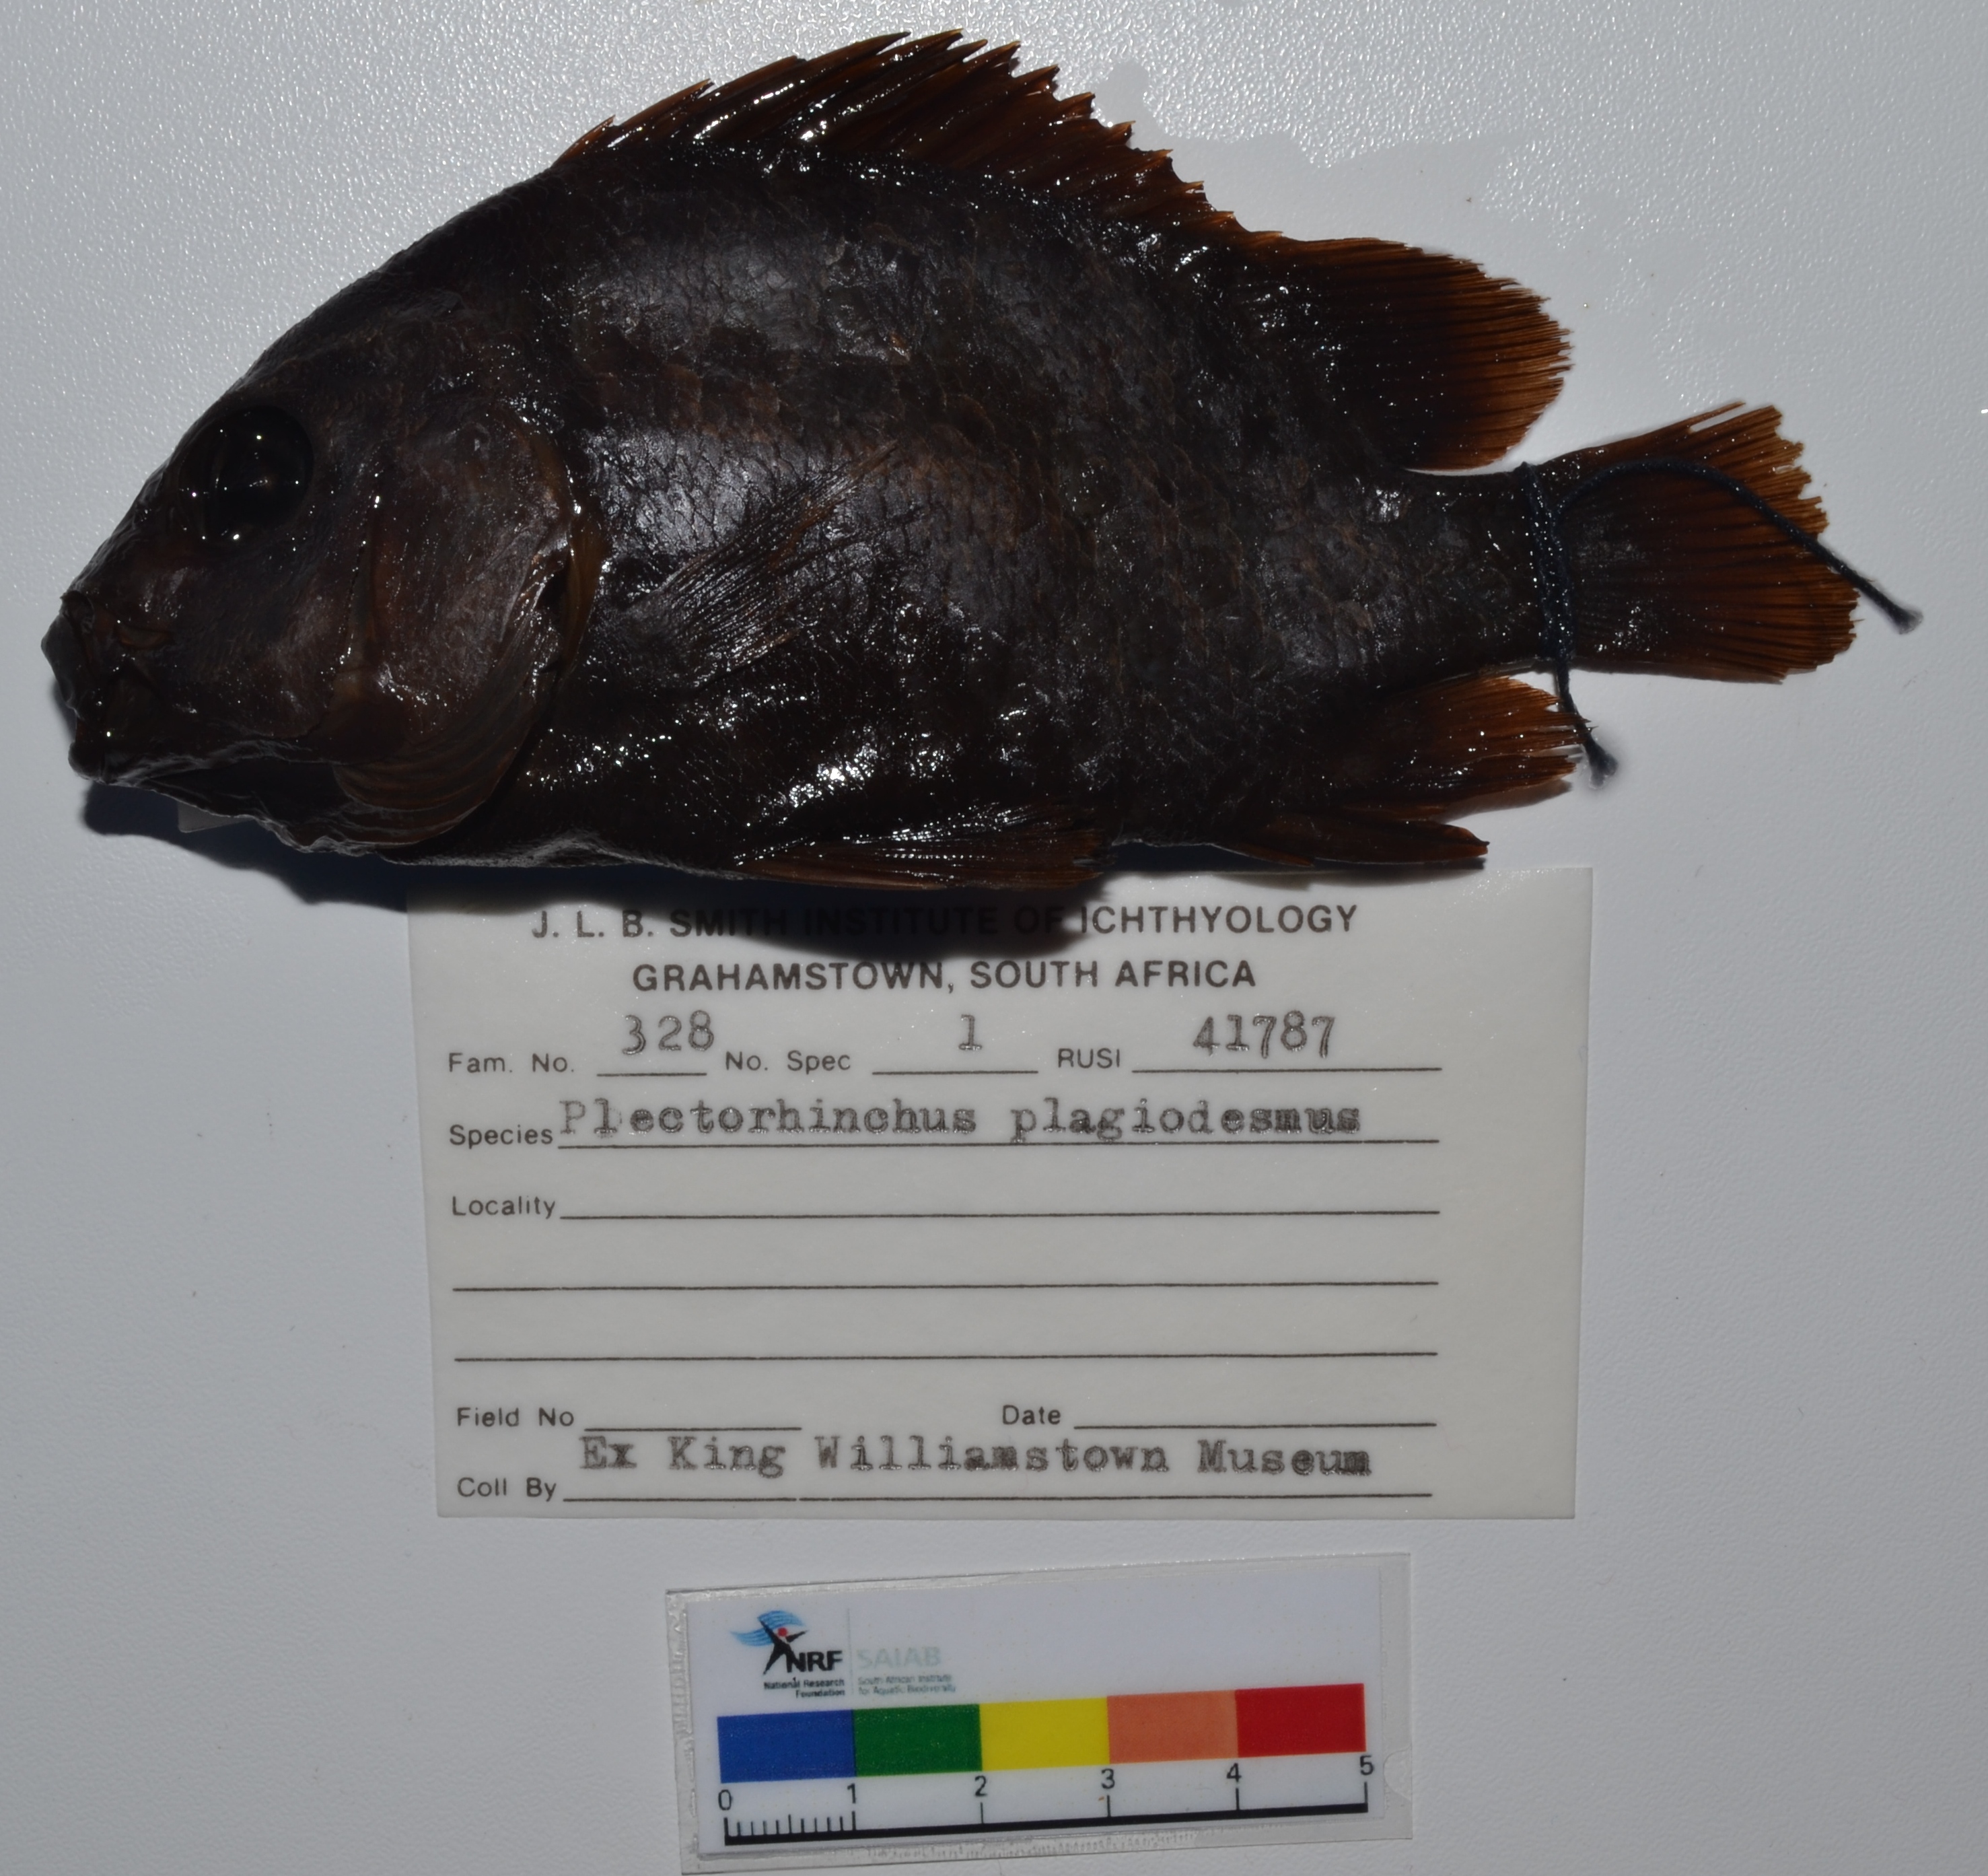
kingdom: Animalia
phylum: Chordata
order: Perciformes
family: Haemulidae
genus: Plectorhinchus
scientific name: Plectorhinchus plagiodesmus
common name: Barred rubberlip
